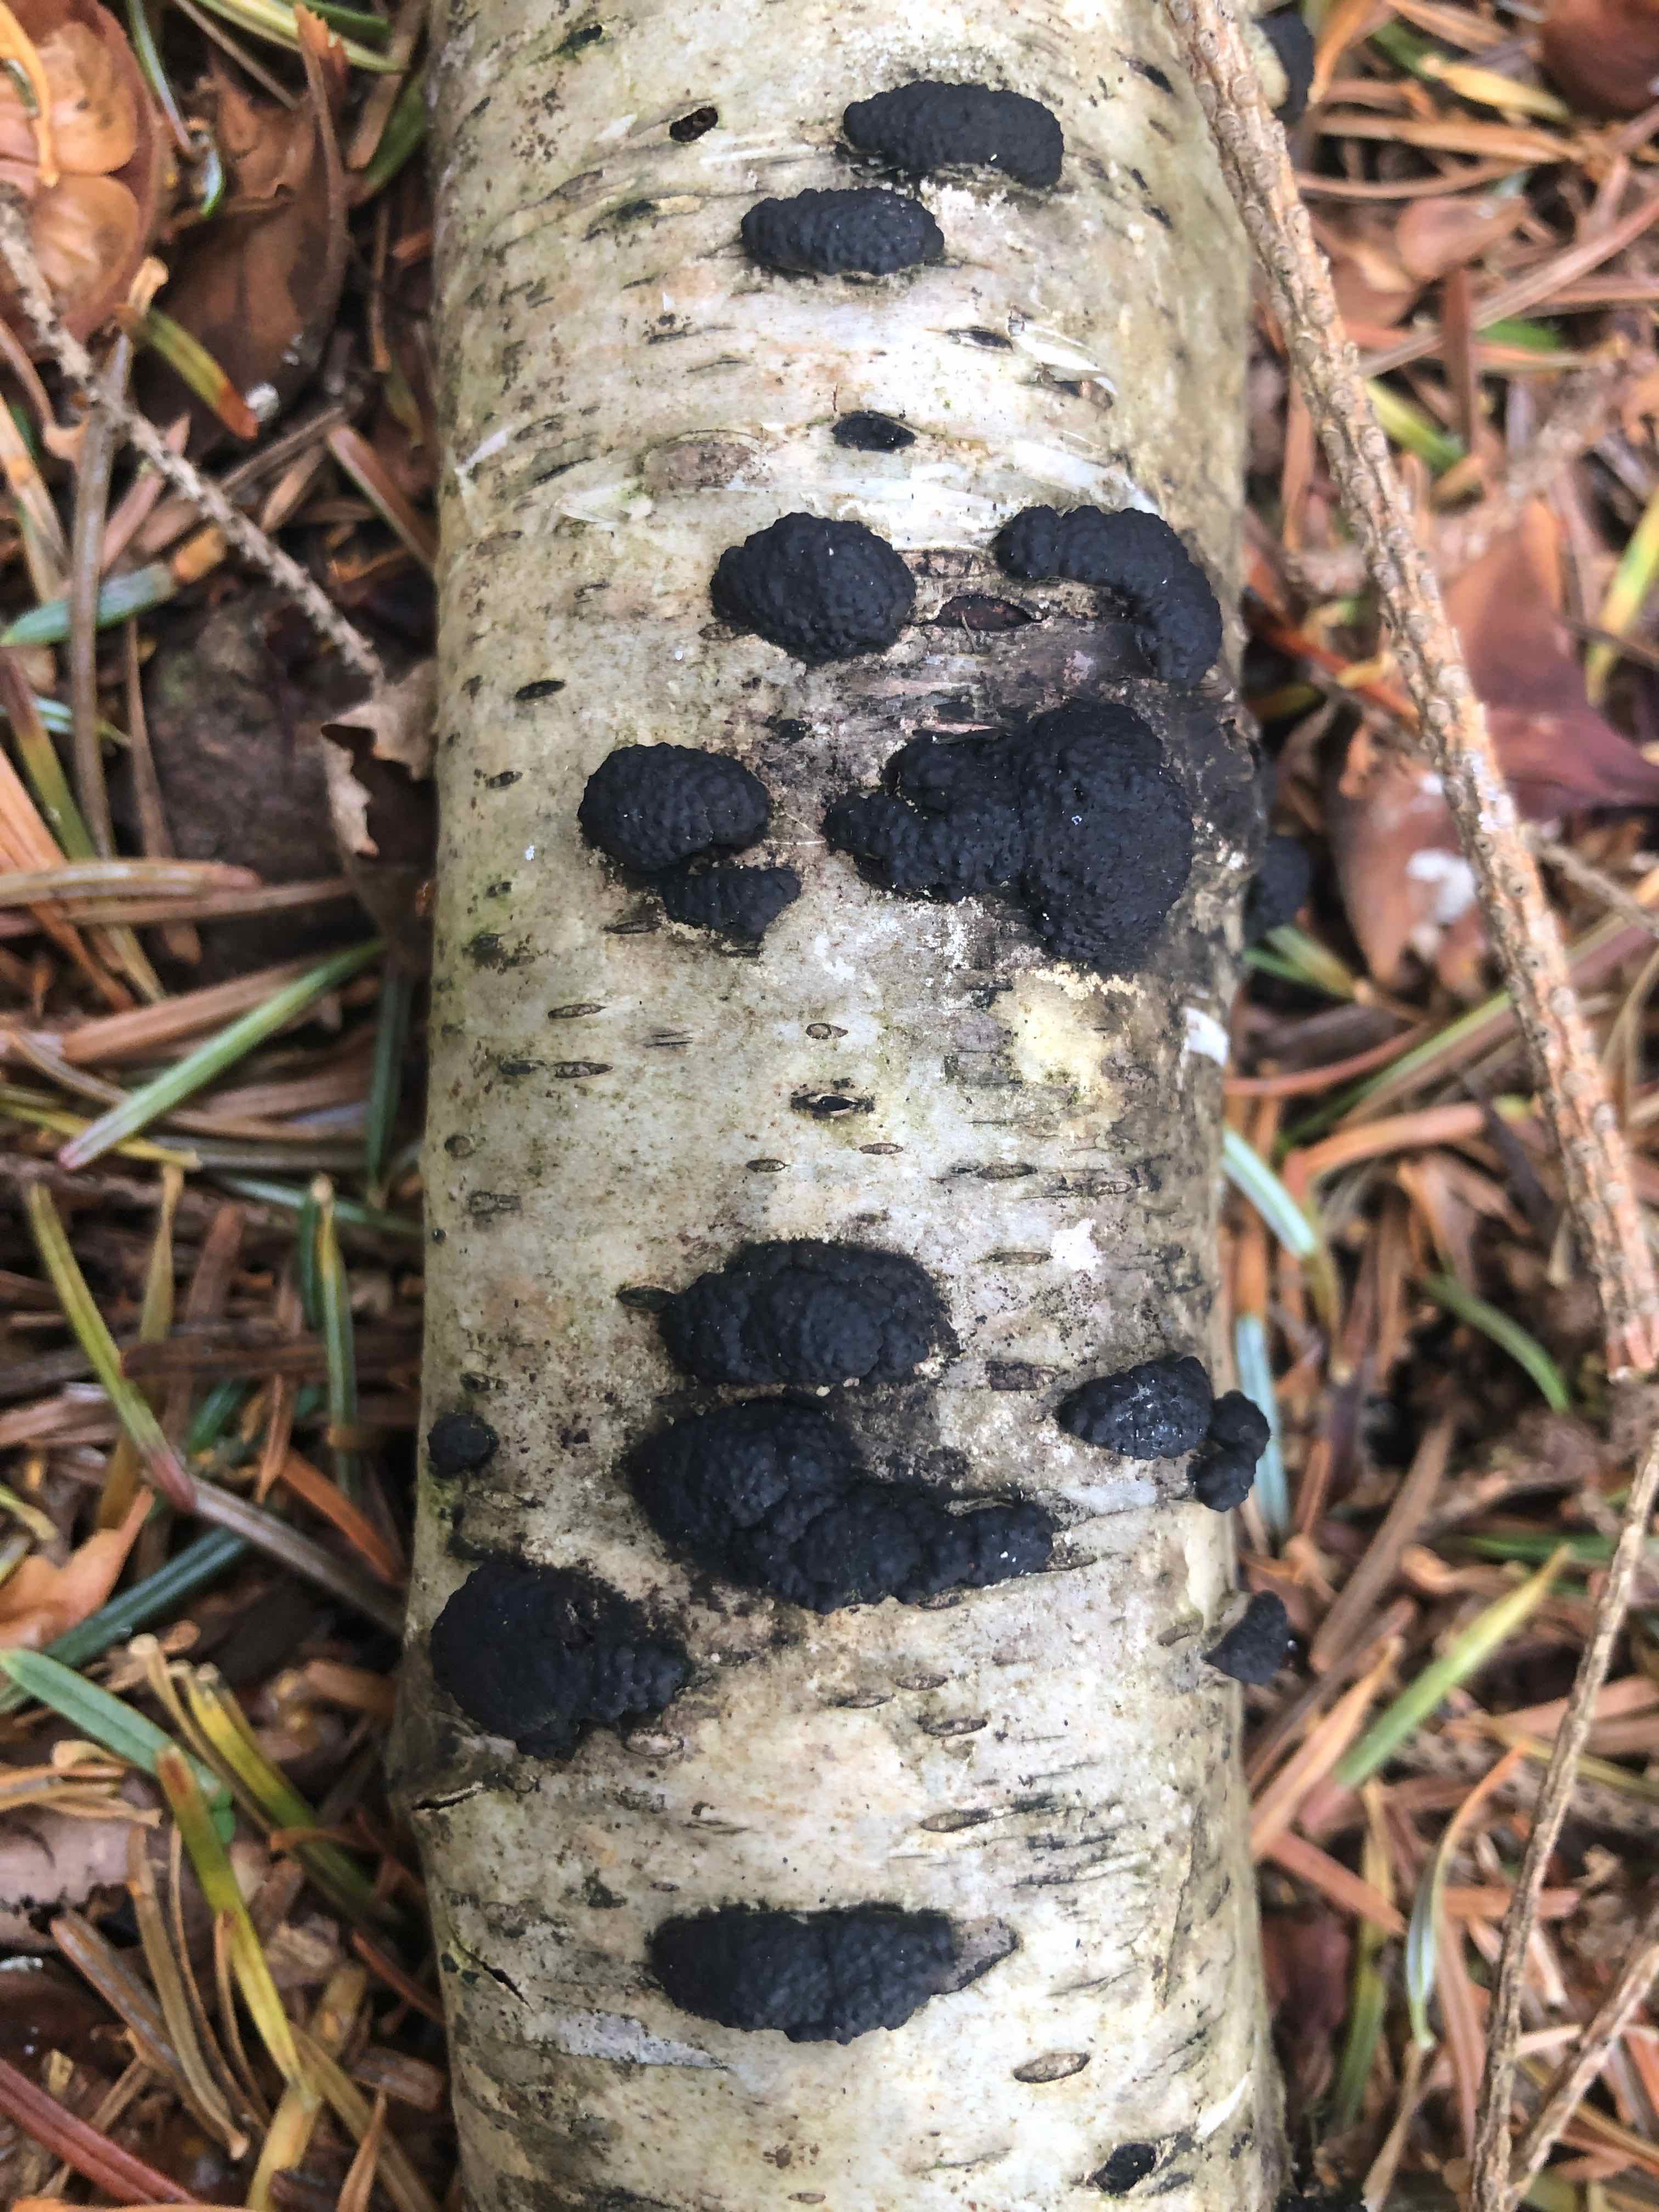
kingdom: Fungi
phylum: Ascomycota
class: Sordariomycetes
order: Xylariales
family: Hypoxylaceae
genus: Jackrogersella
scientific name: Jackrogersella multiformis
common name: foranderlig kulbær
